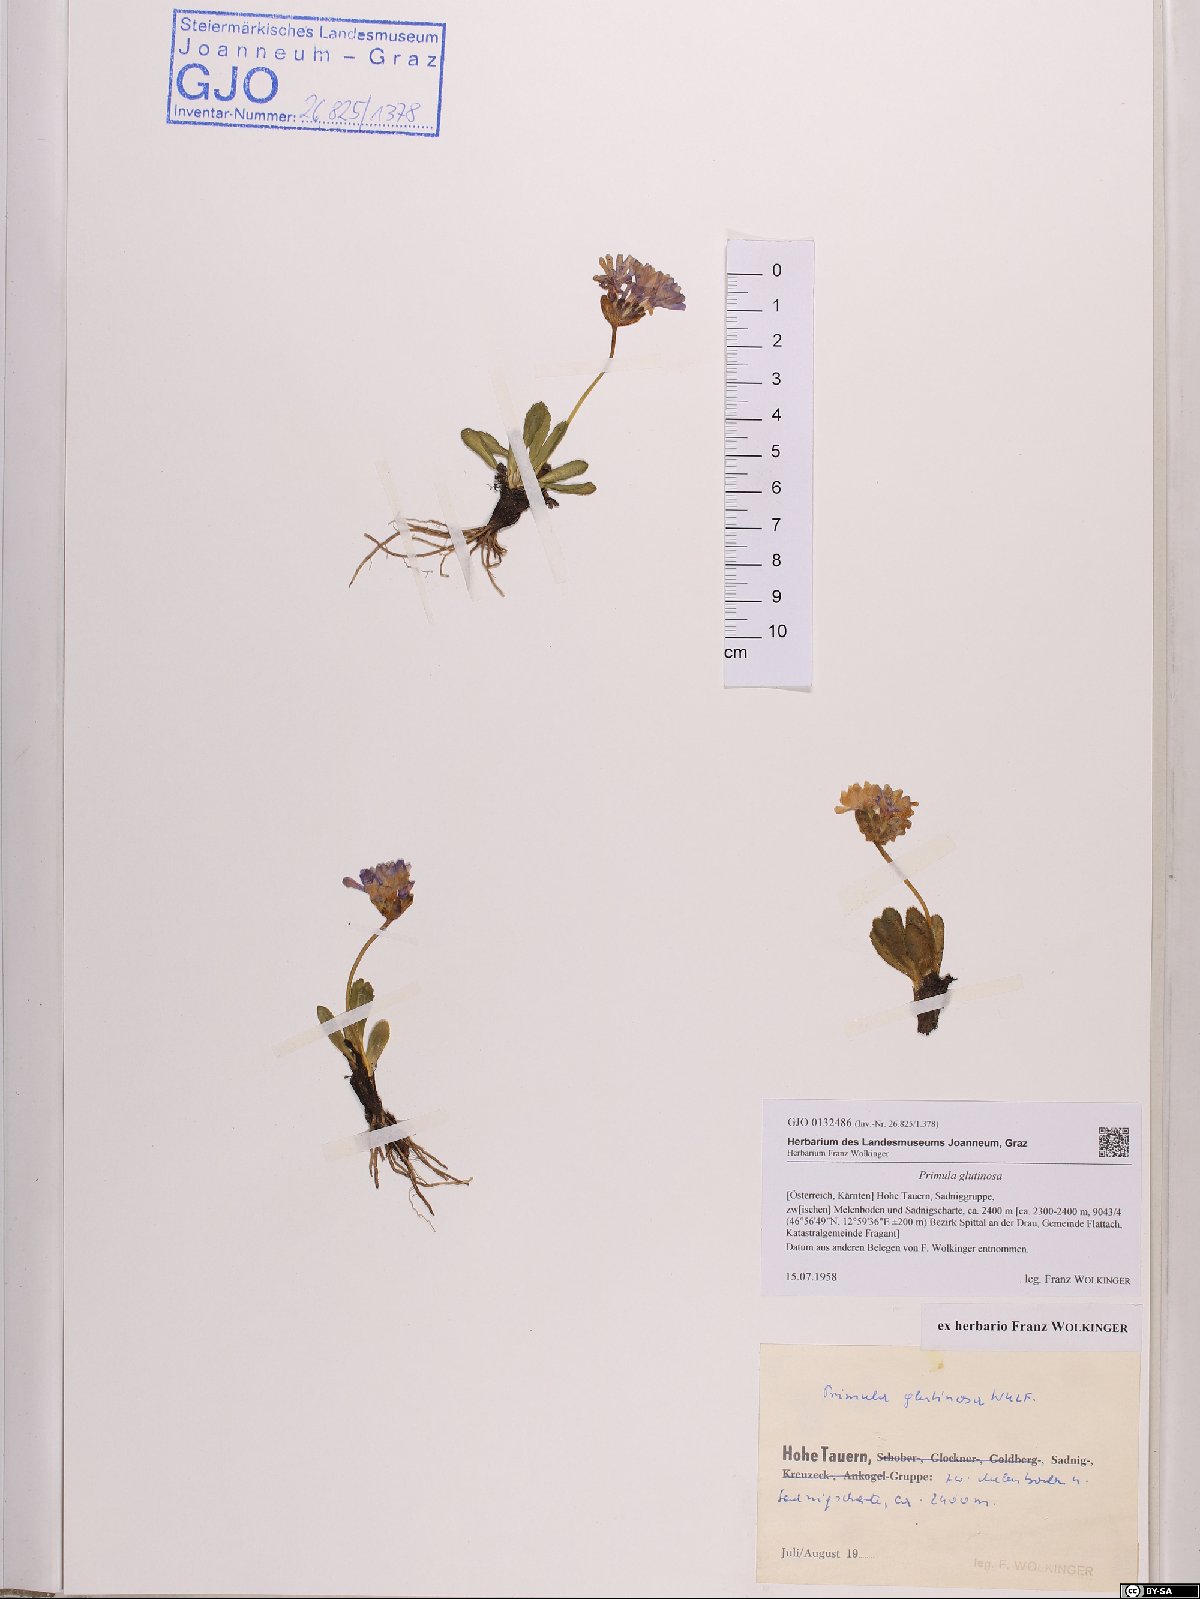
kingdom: Plantae
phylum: Tracheophyta
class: Magnoliopsida
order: Ericales
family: Primulaceae
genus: Primula
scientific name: Primula glutinosa
